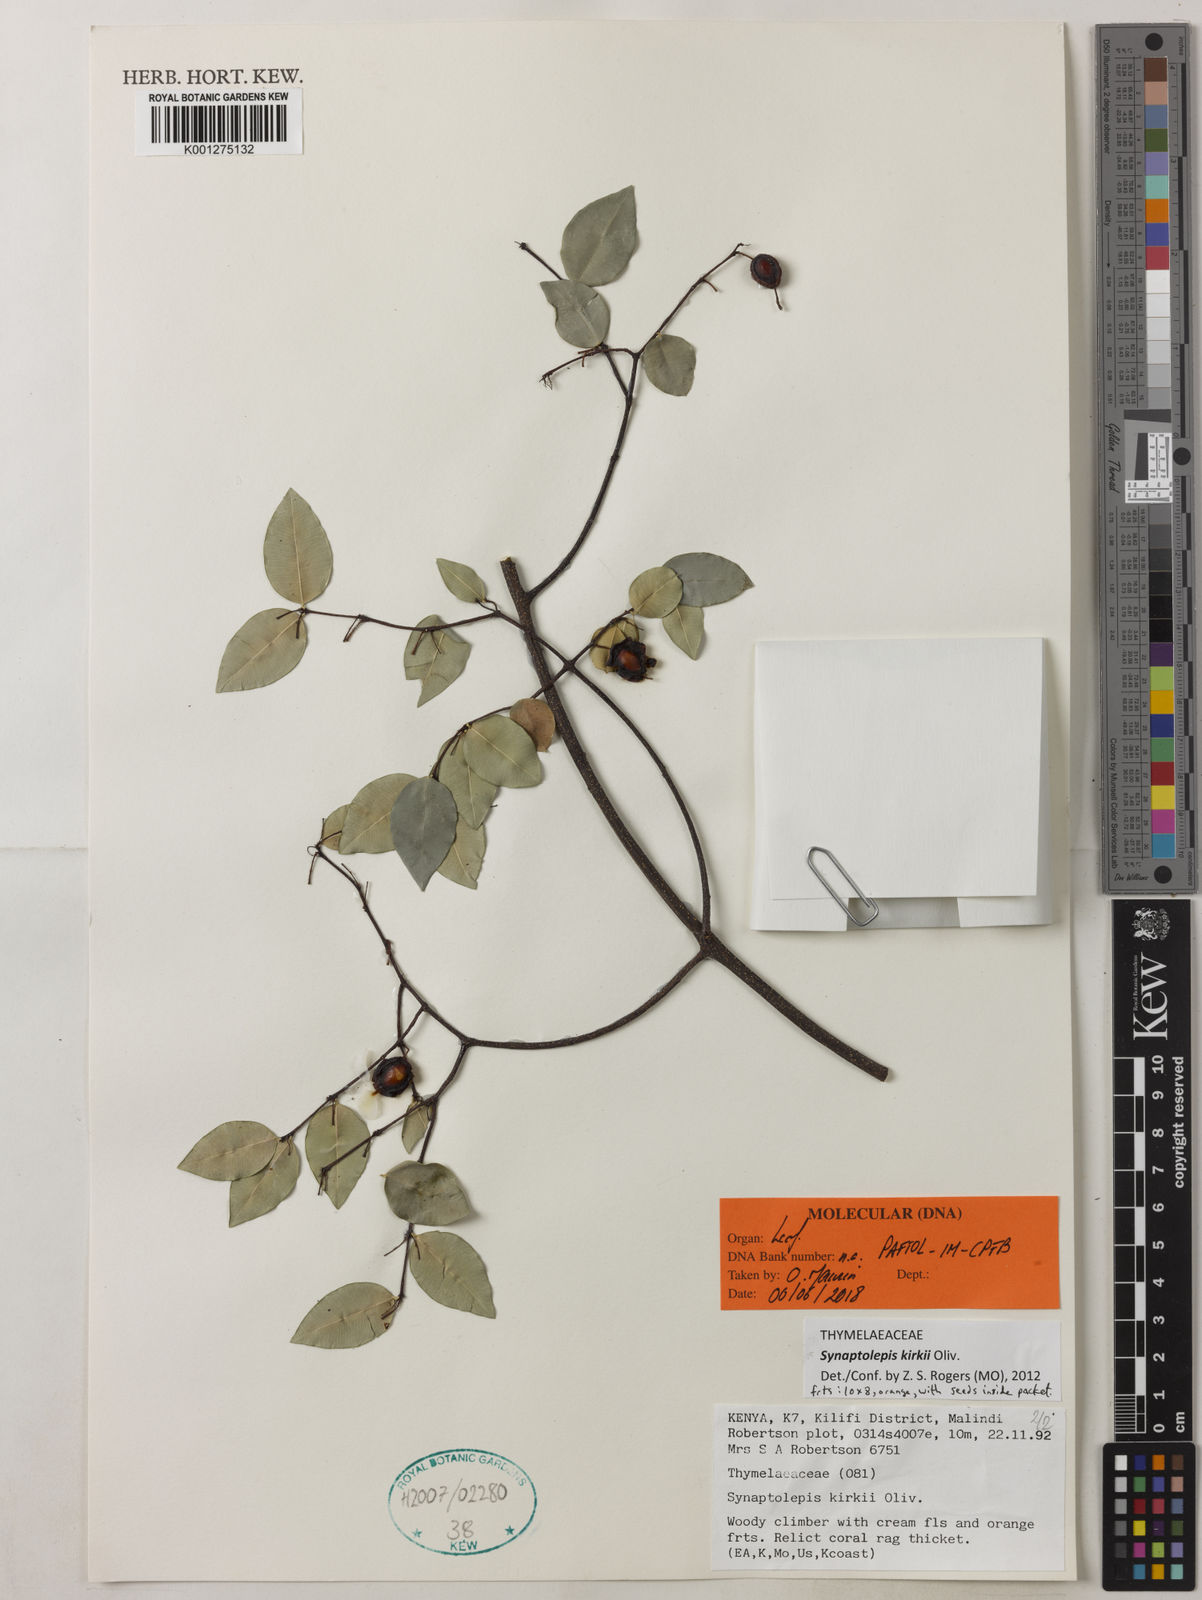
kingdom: Plantae
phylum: Tracheophyta
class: Magnoliopsida
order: Malvales
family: Thymelaeaceae
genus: Synaptolepis
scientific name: Synaptolepis kirkii
